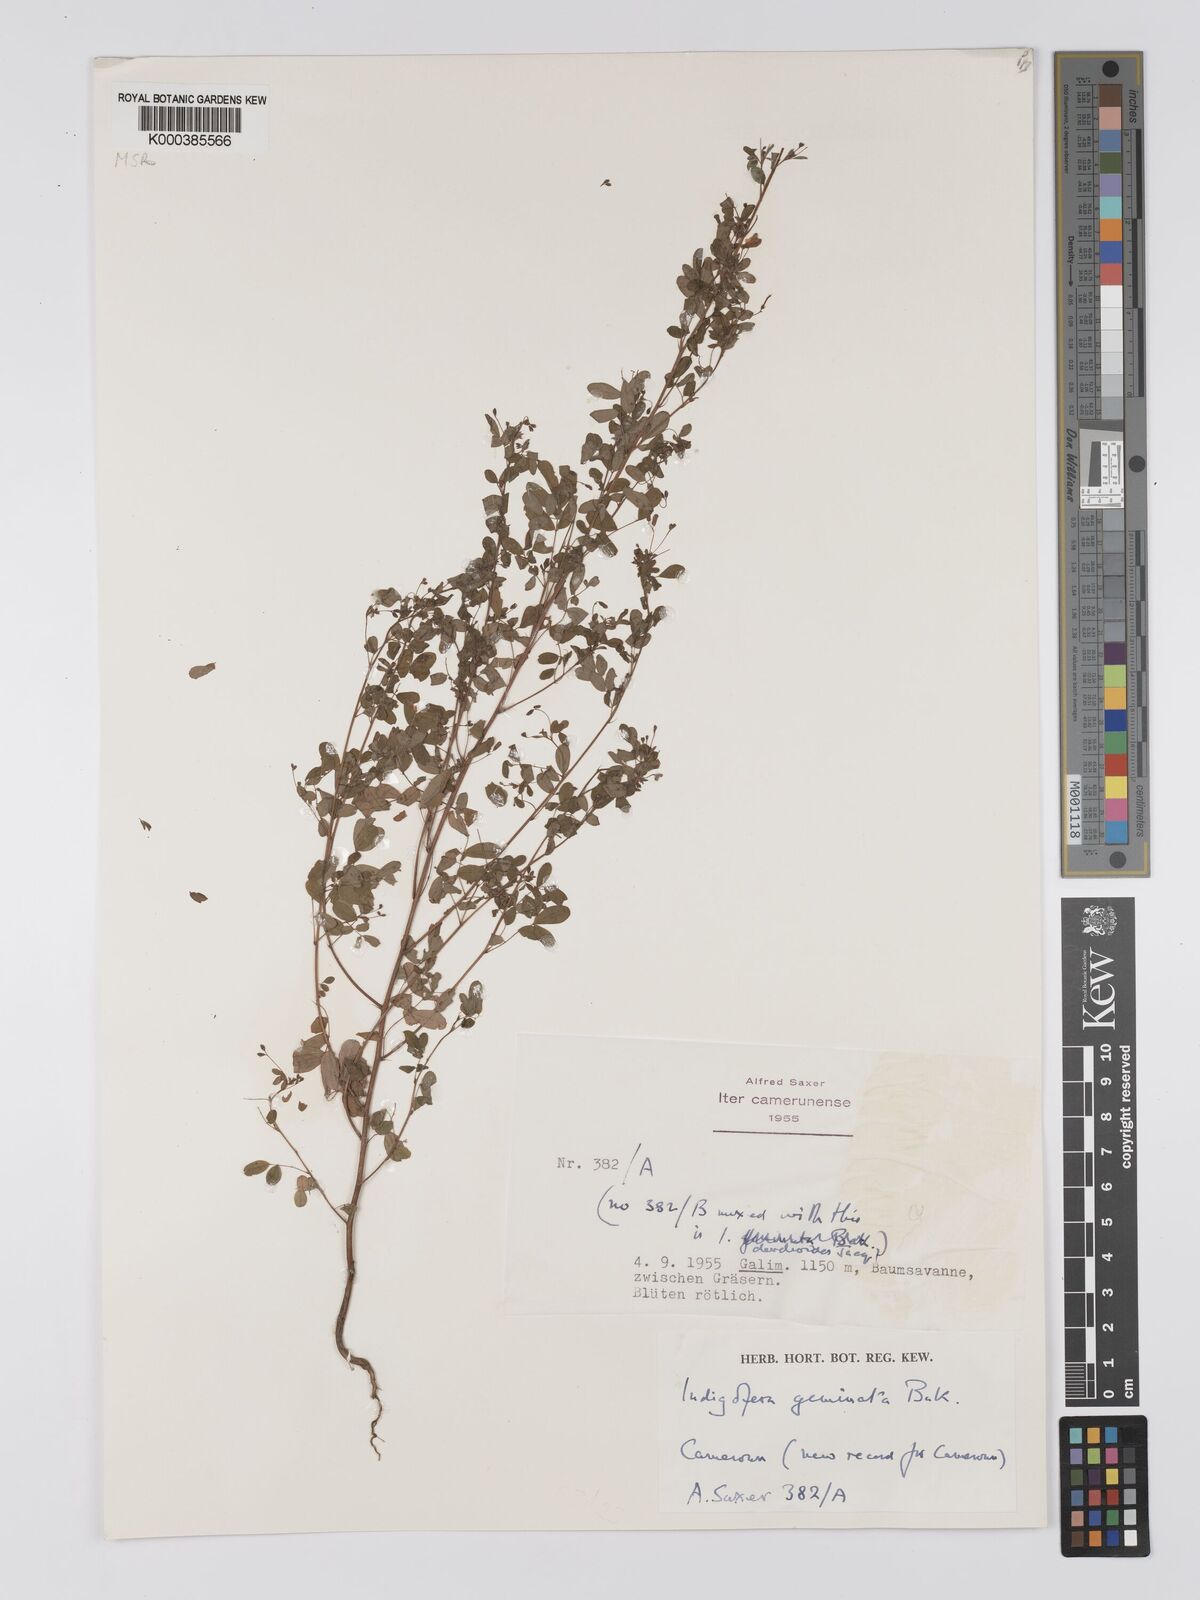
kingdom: Plantae
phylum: Tracheophyta
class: Magnoliopsida
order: Fabales
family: Fabaceae
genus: Indigofera
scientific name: Indigofera geminata
